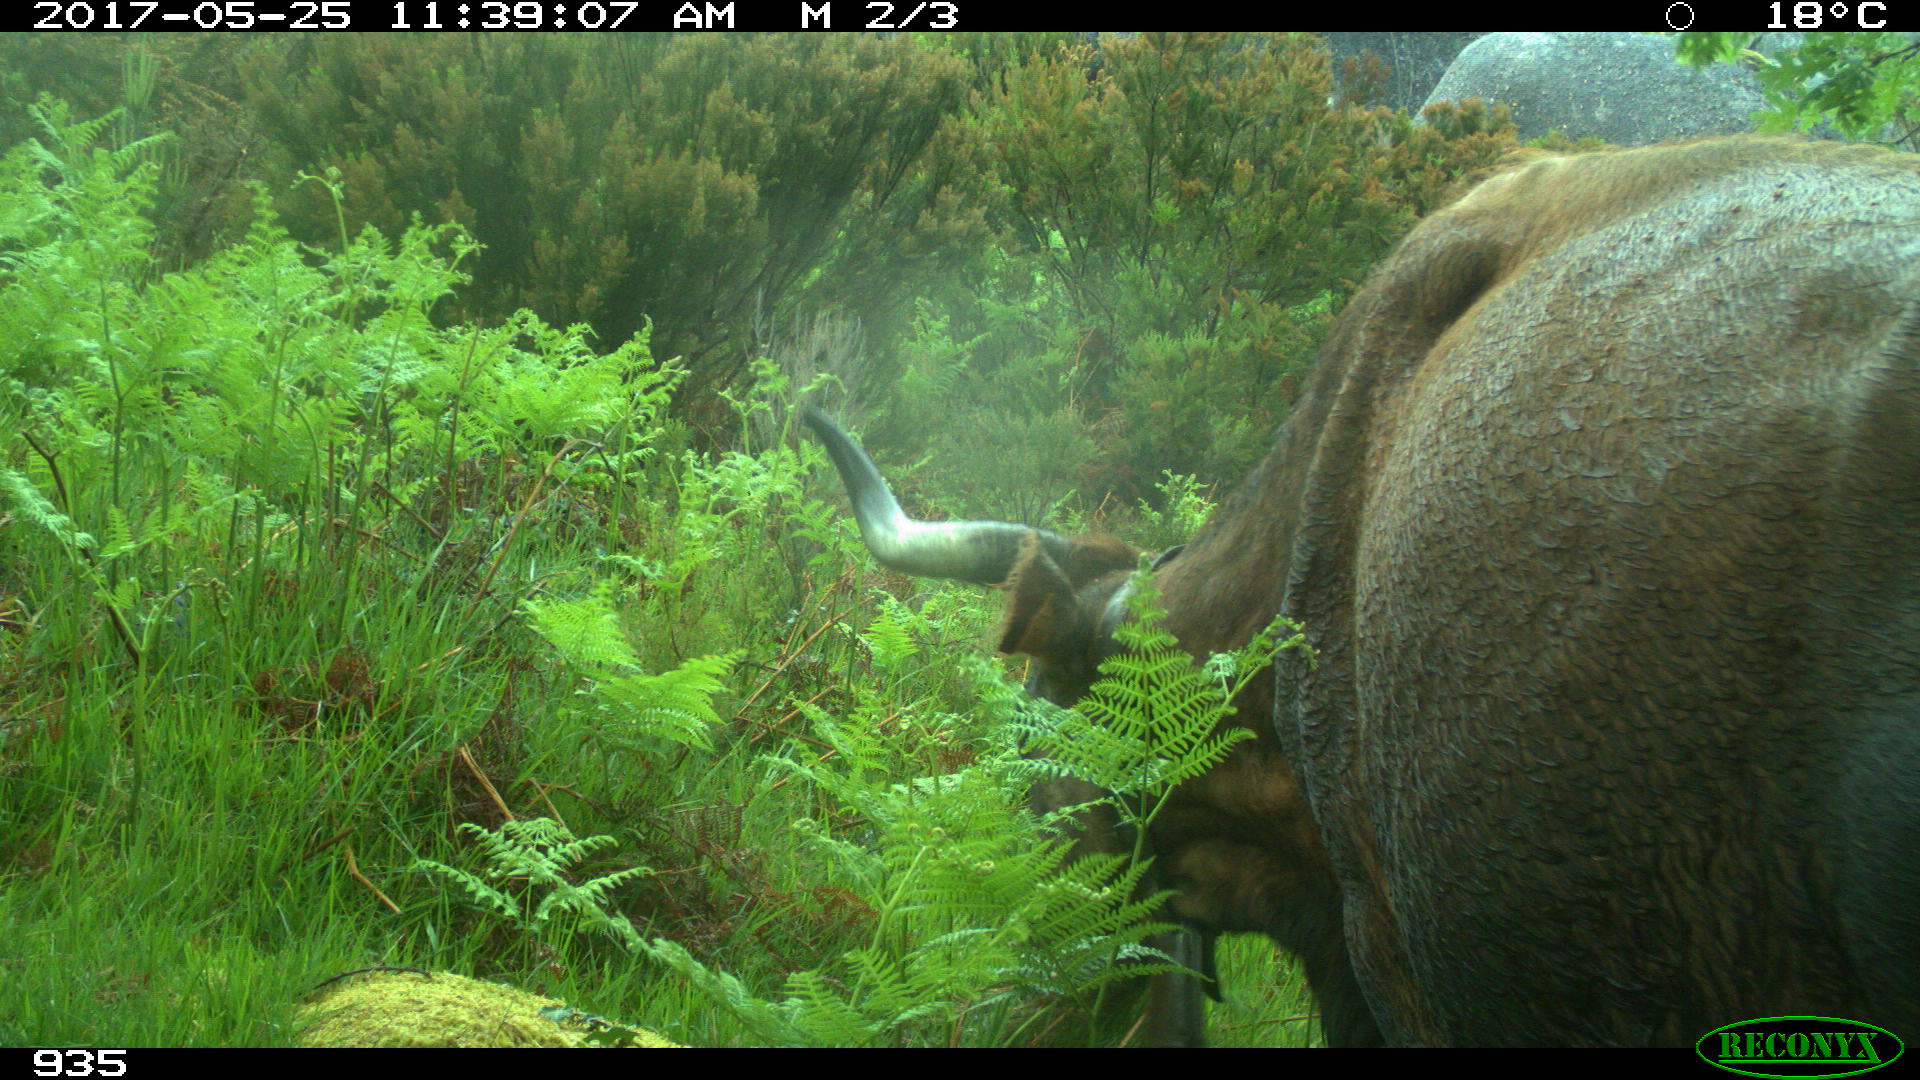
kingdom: Animalia
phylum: Chordata
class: Mammalia
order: Artiodactyla
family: Bovidae
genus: Bos
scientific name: Bos taurus
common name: Domesticated cattle
